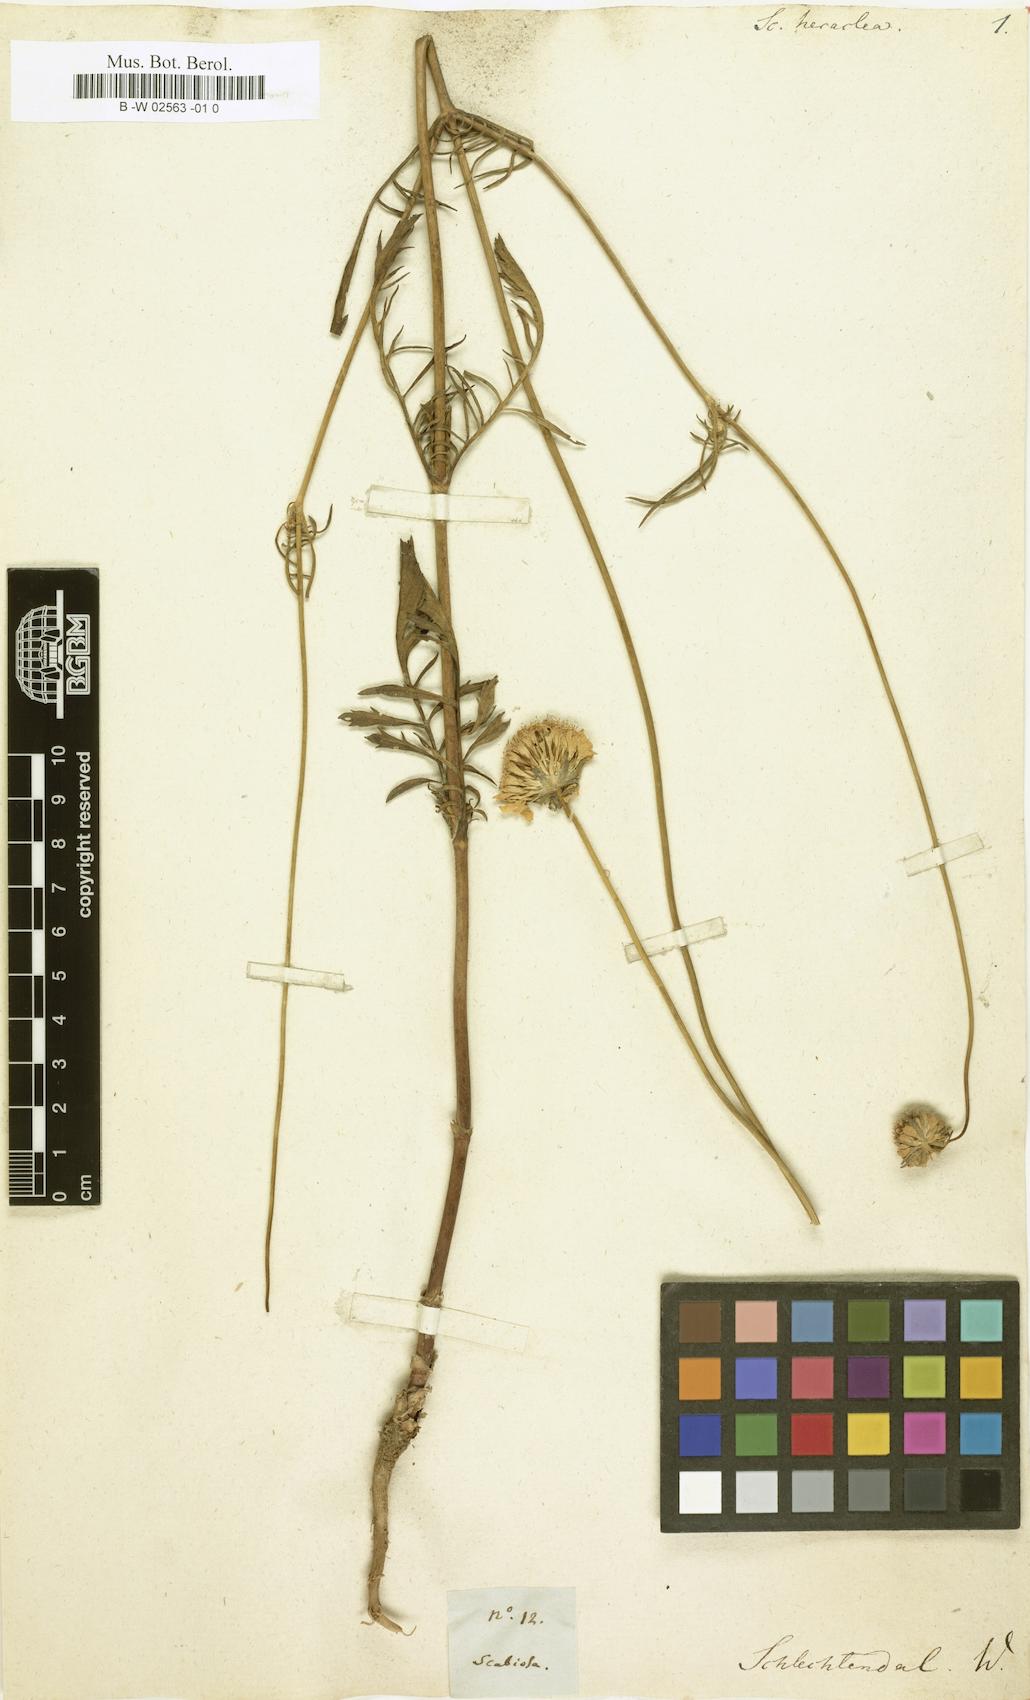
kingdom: Plantae
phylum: Tracheophyta
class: Magnoliopsida
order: Dipsacales
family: Caprifoliaceae
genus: Cephalaria
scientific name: Cephalaria leucantha
